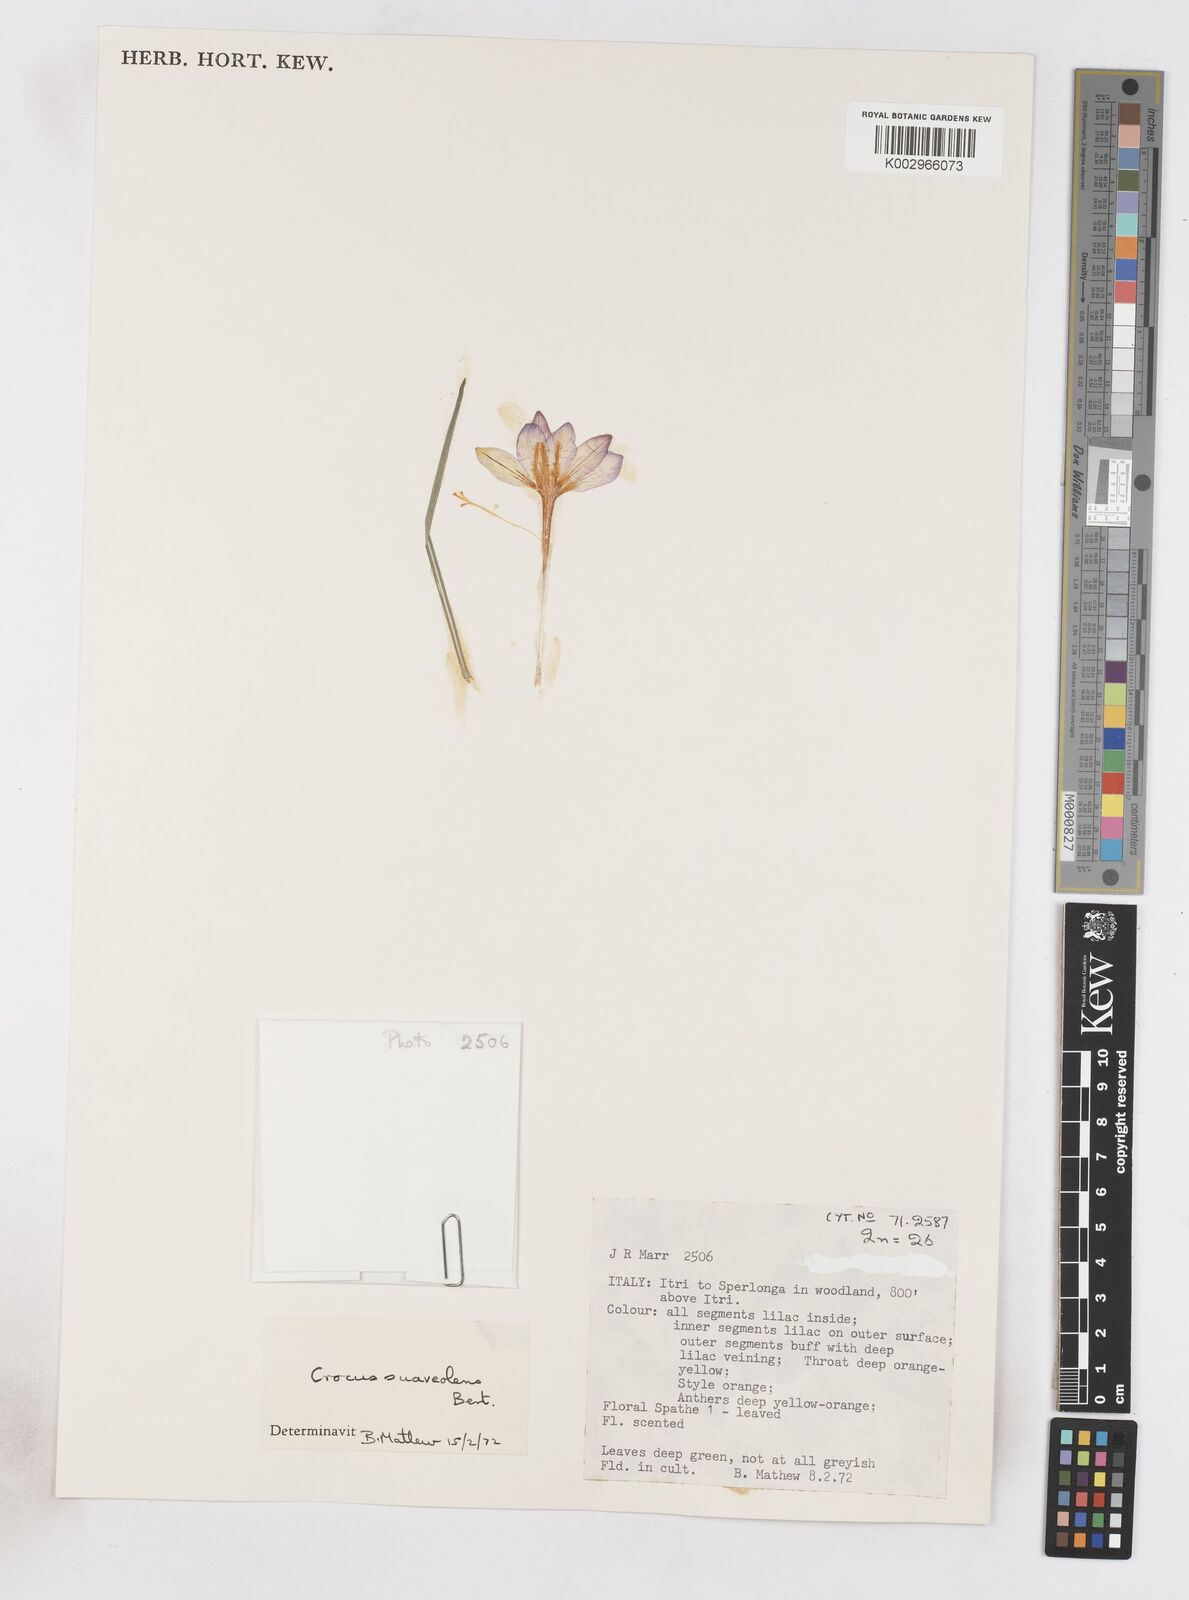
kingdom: Plantae
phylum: Tracheophyta
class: Liliopsida
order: Asparagales
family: Iridaceae
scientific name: Iridaceae
